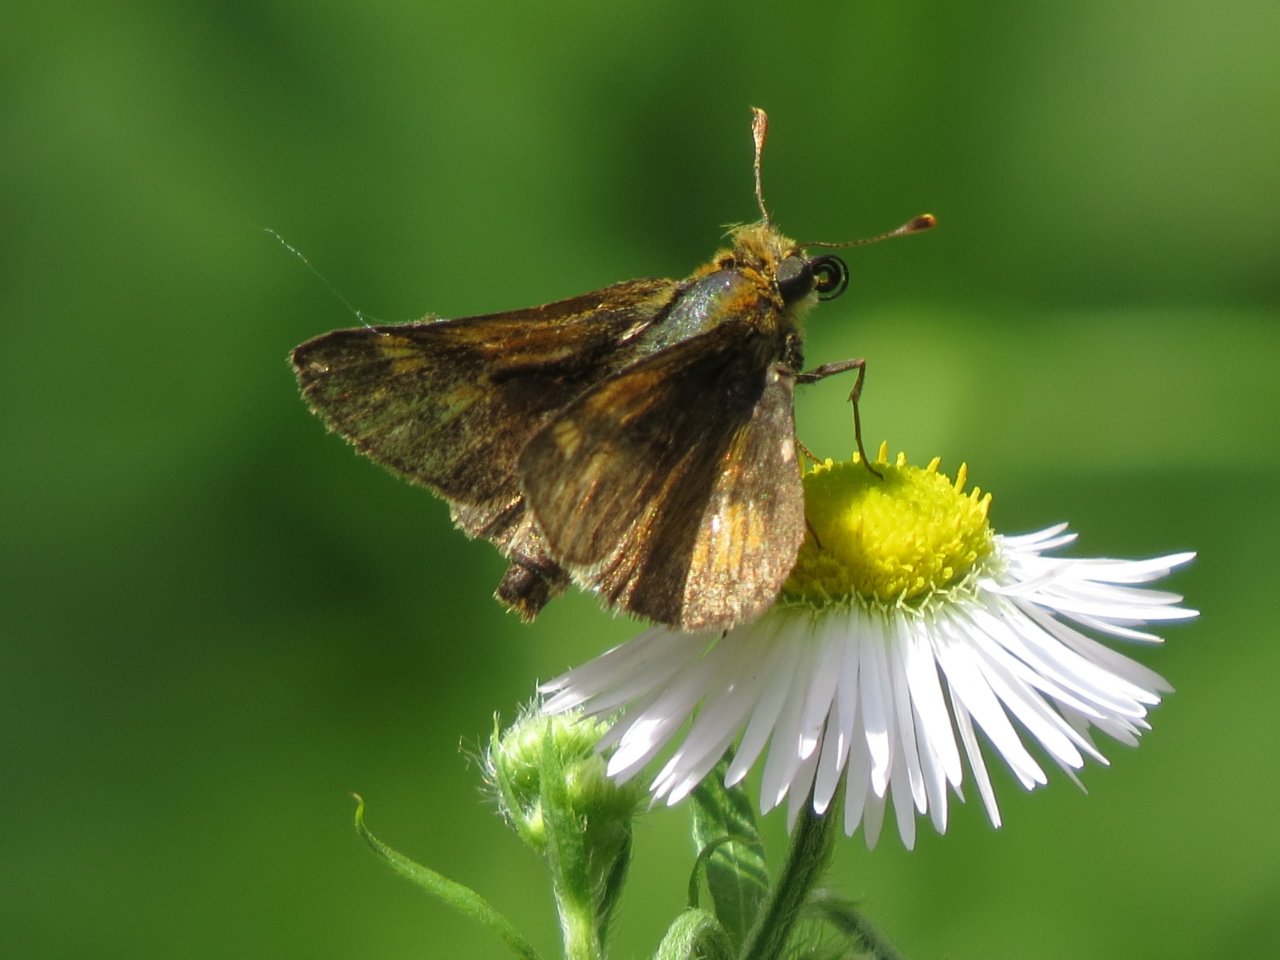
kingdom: Animalia
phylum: Arthropoda
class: Insecta
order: Lepidoptera
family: Hesperiidae
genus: Polites
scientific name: Polites coras
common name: Peck's Skipper
